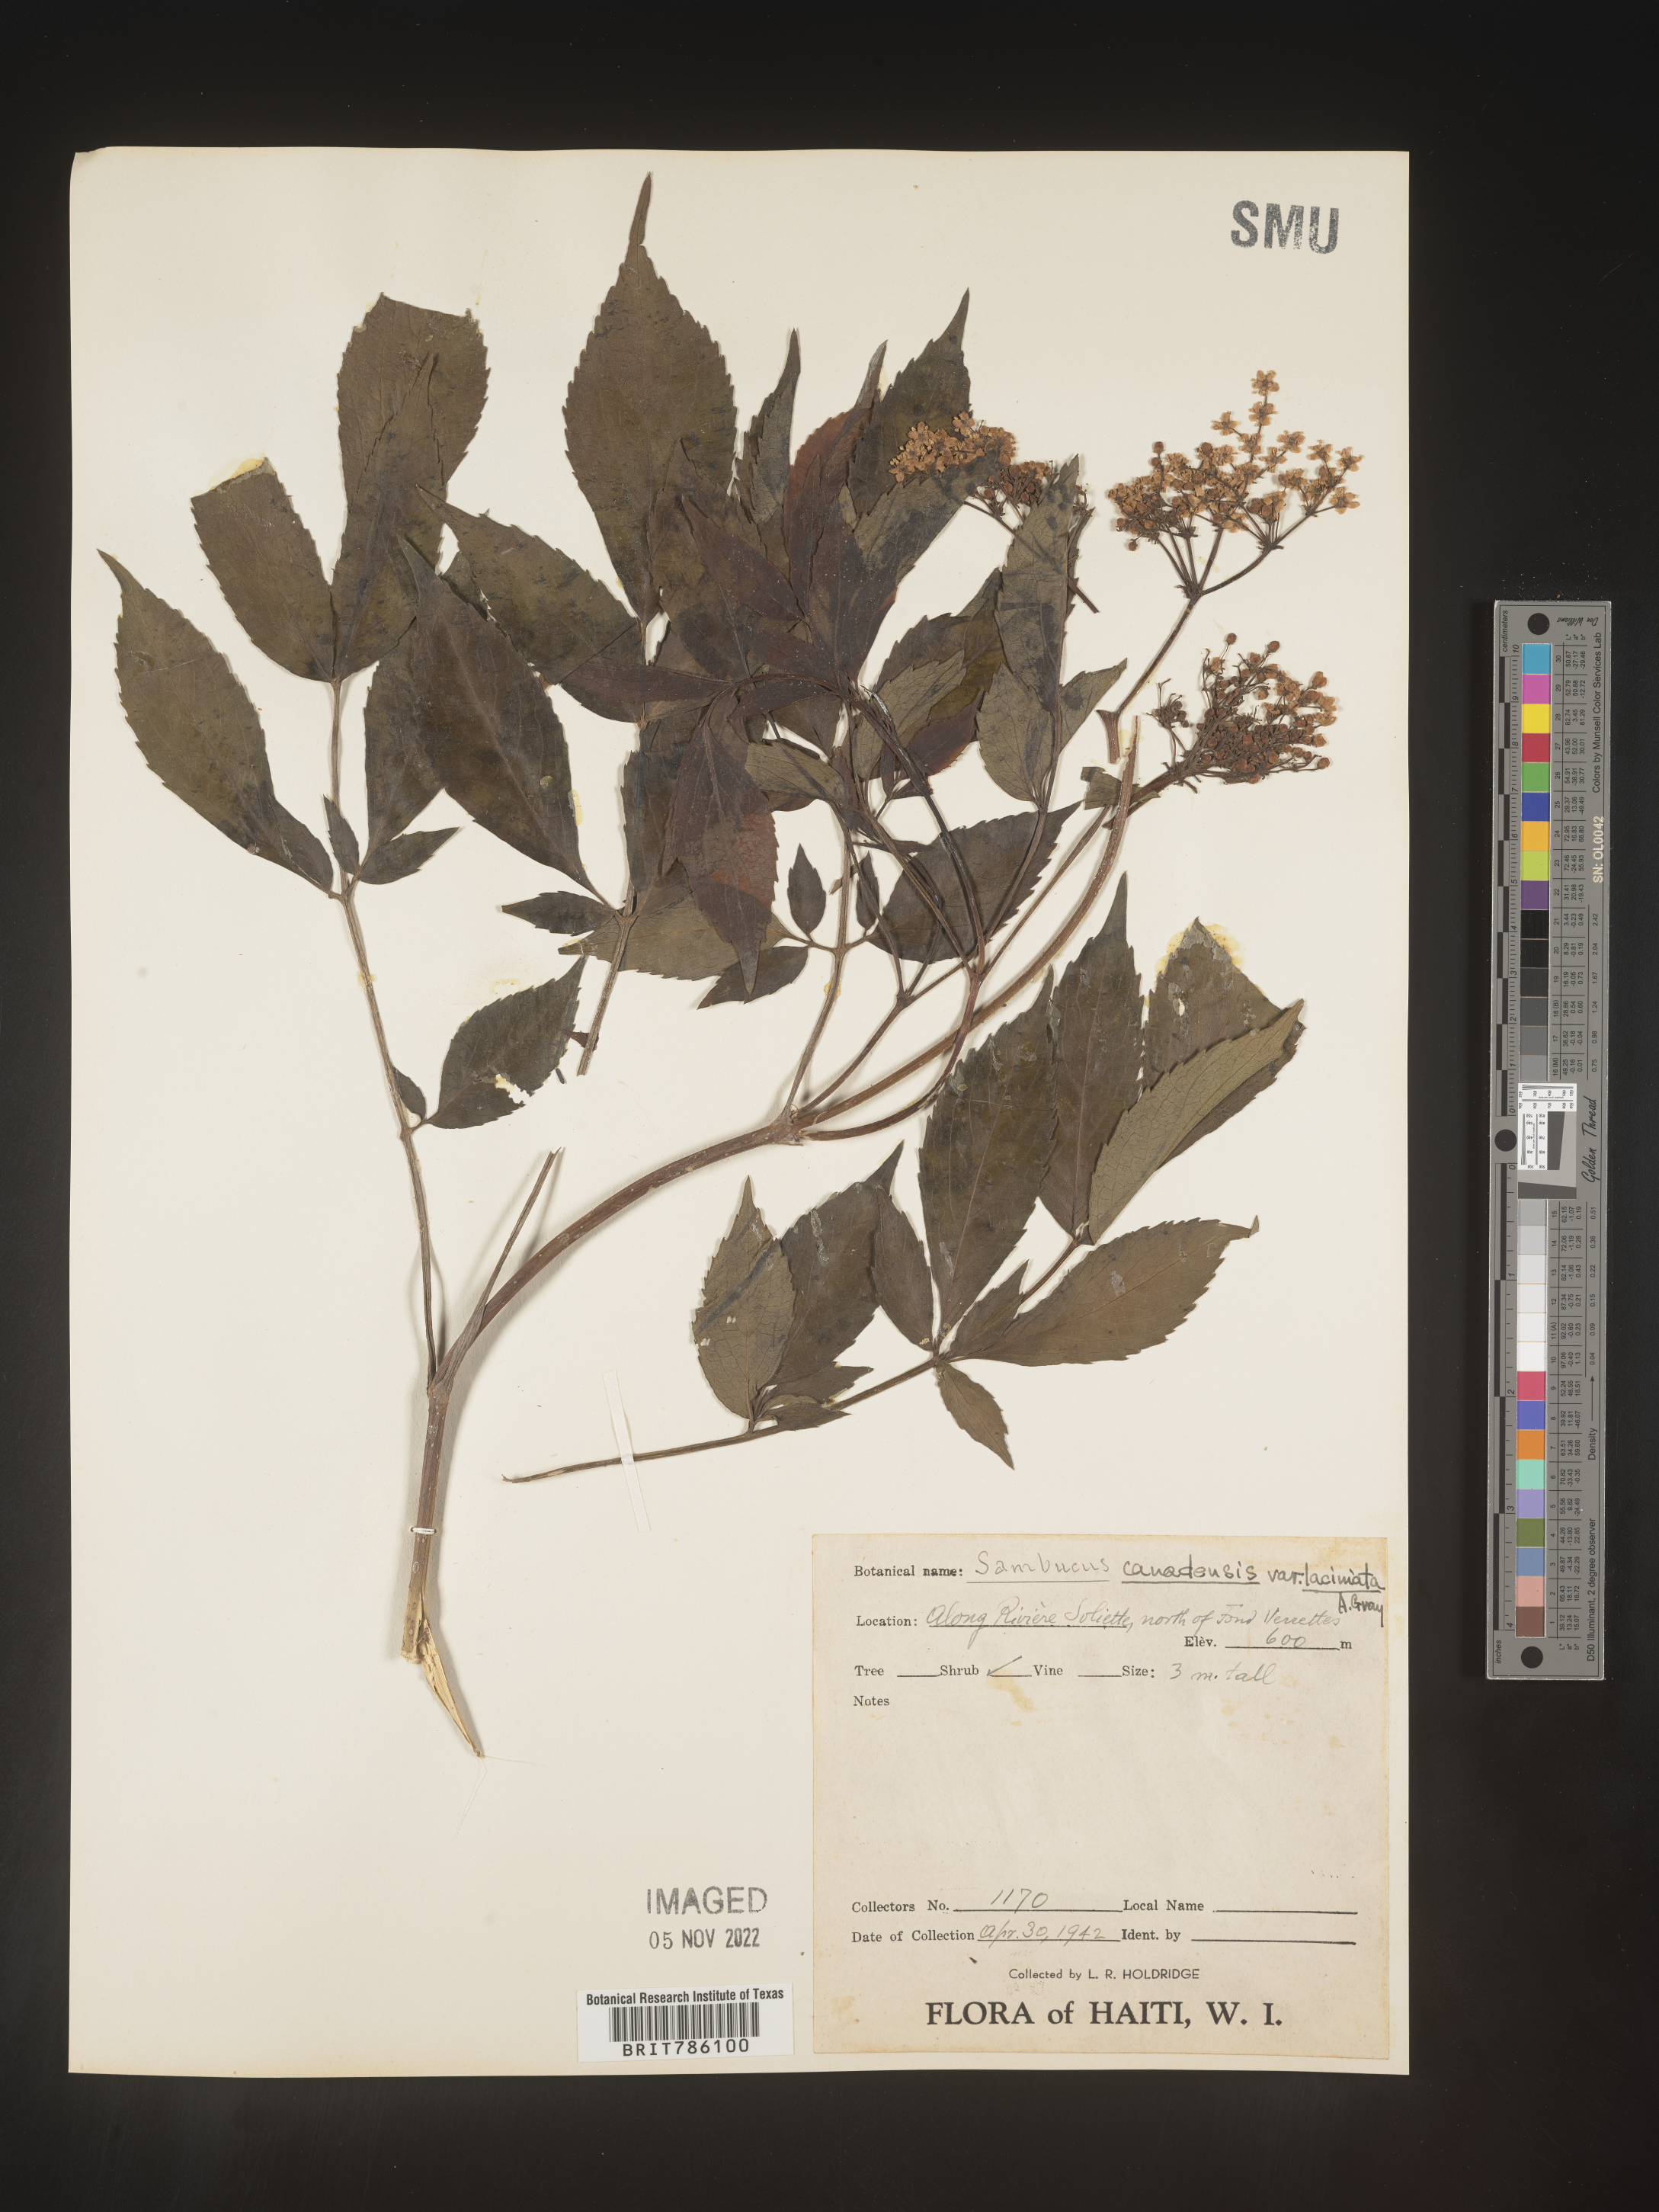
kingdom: Plantae
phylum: Tracheophyta
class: Magnoliopsida
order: Dipsacales
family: Viburnaceae
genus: Sambucus
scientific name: Sambucus
